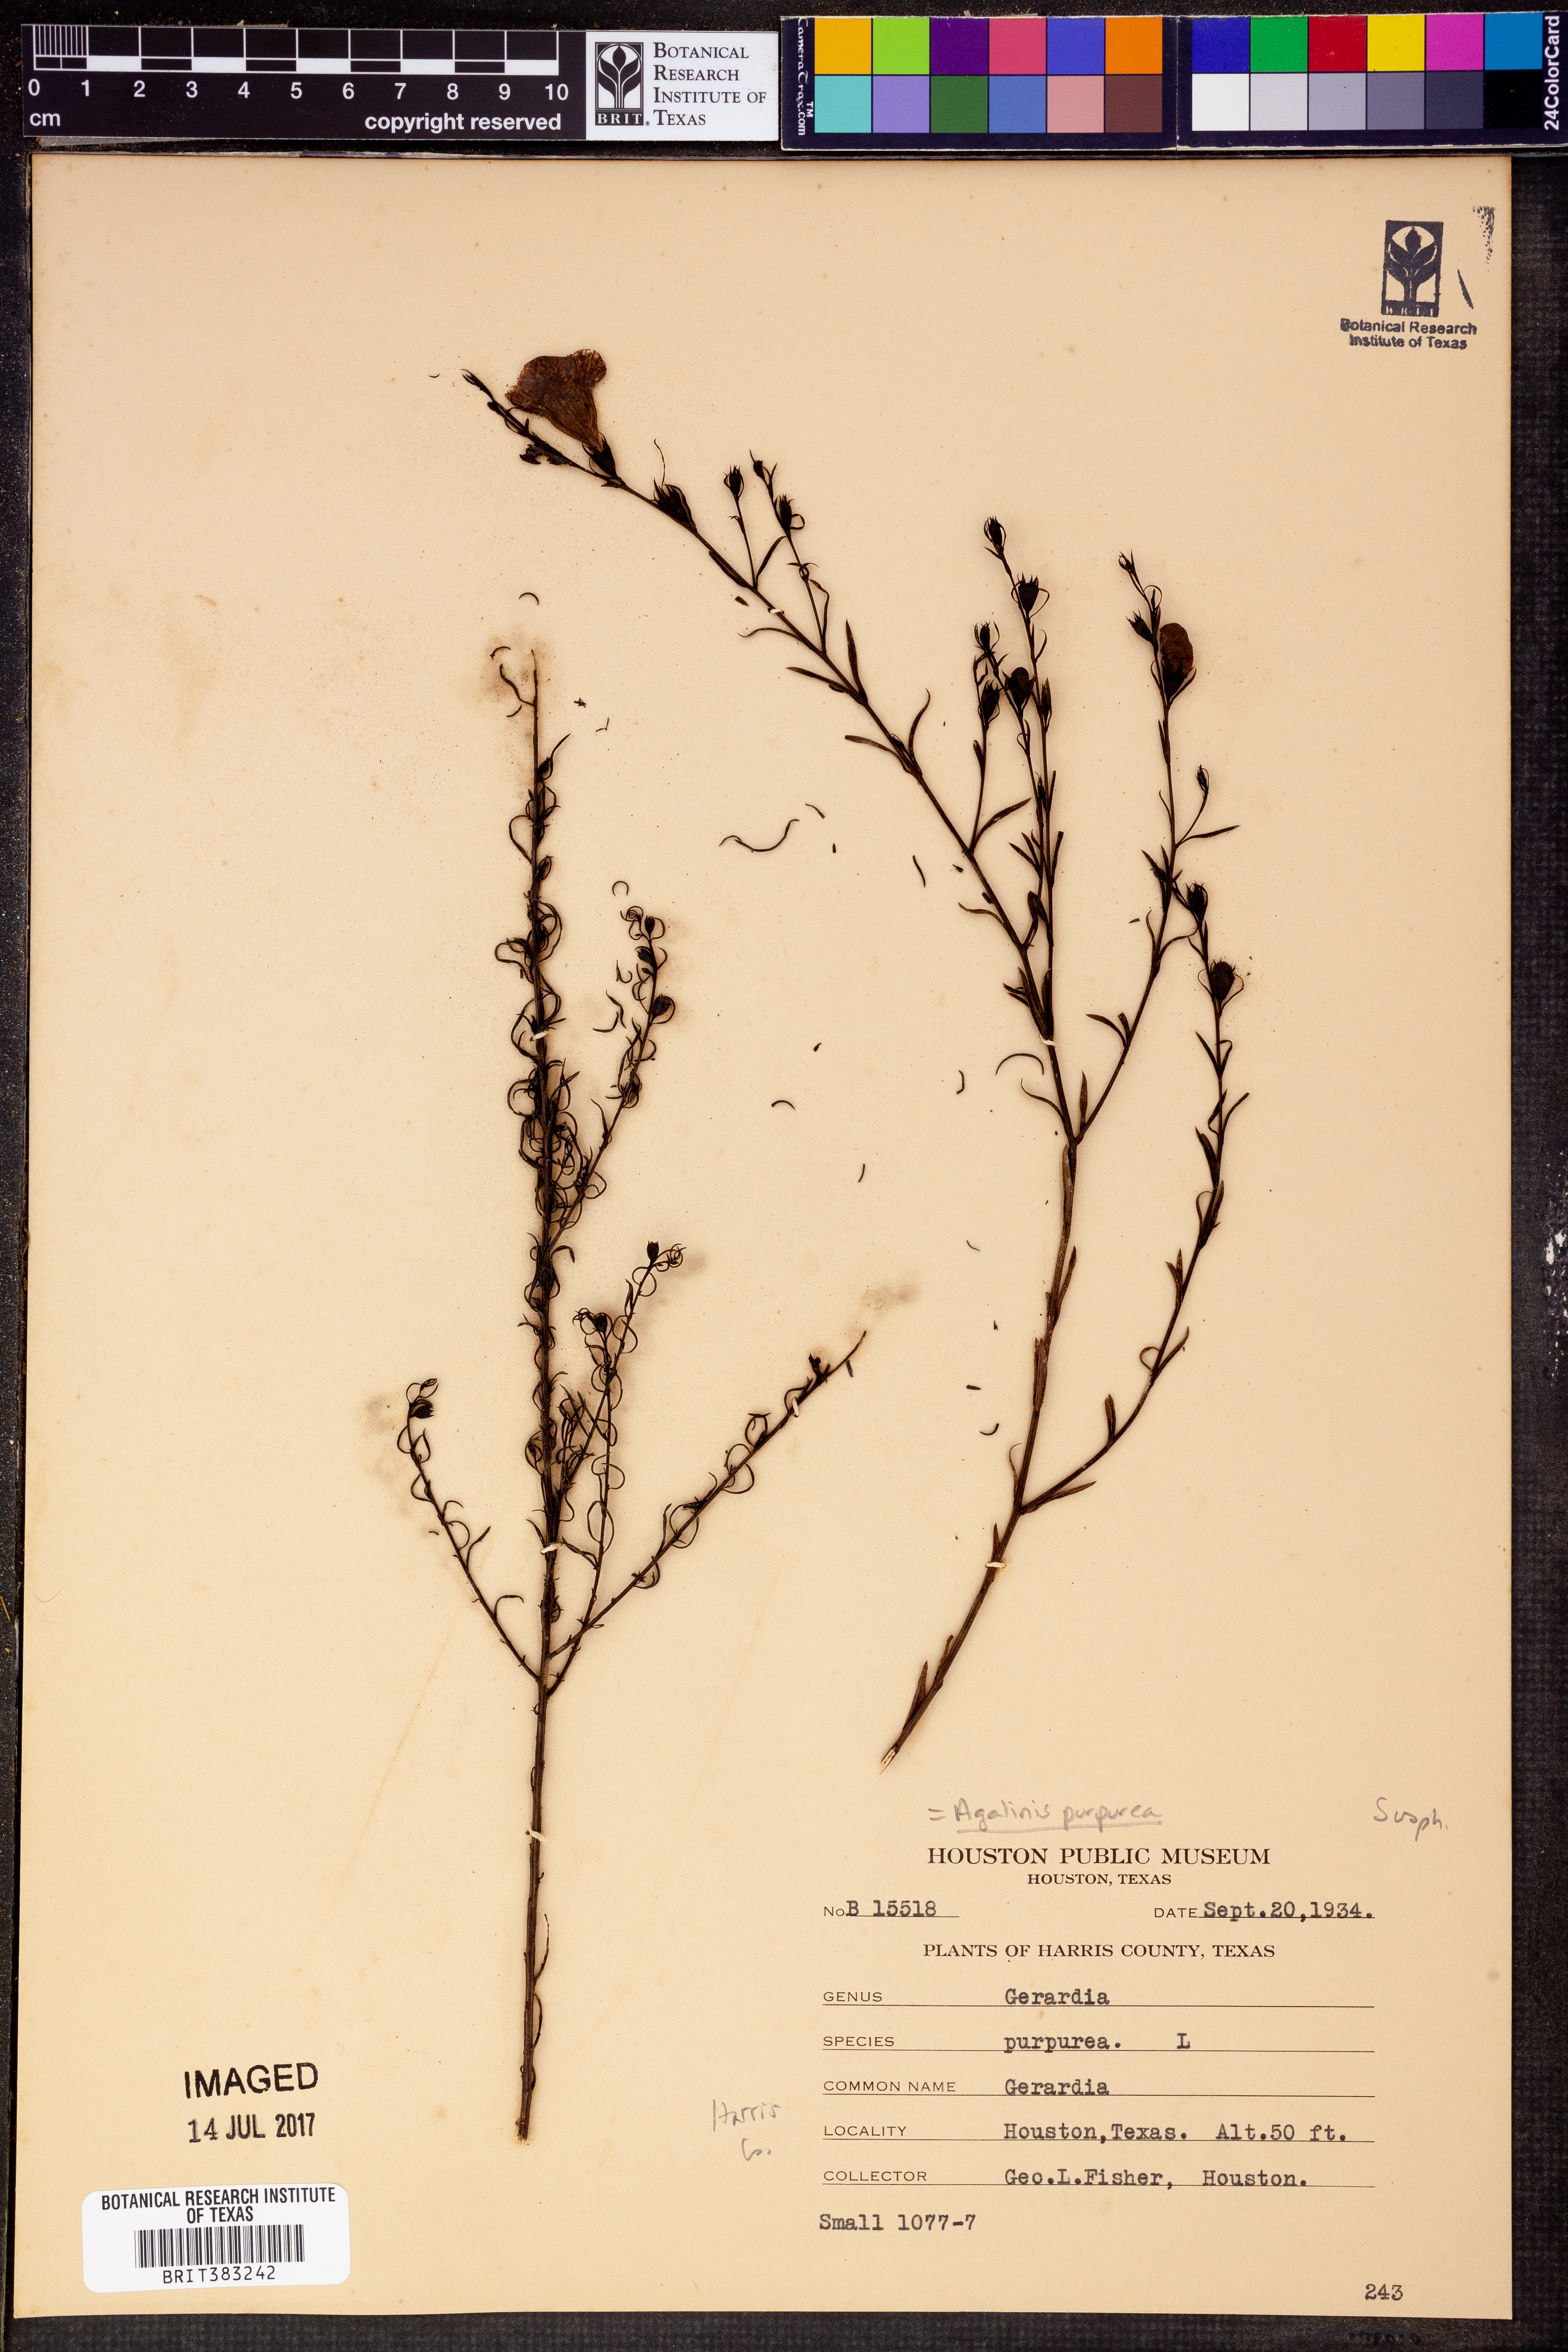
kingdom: Plantae
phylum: Tracheophyta
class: Magnoliopsida
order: Lamiales
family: Orobanchaceae
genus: Agalinis
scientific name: Agalinis purpurea
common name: Purple false foxglove
